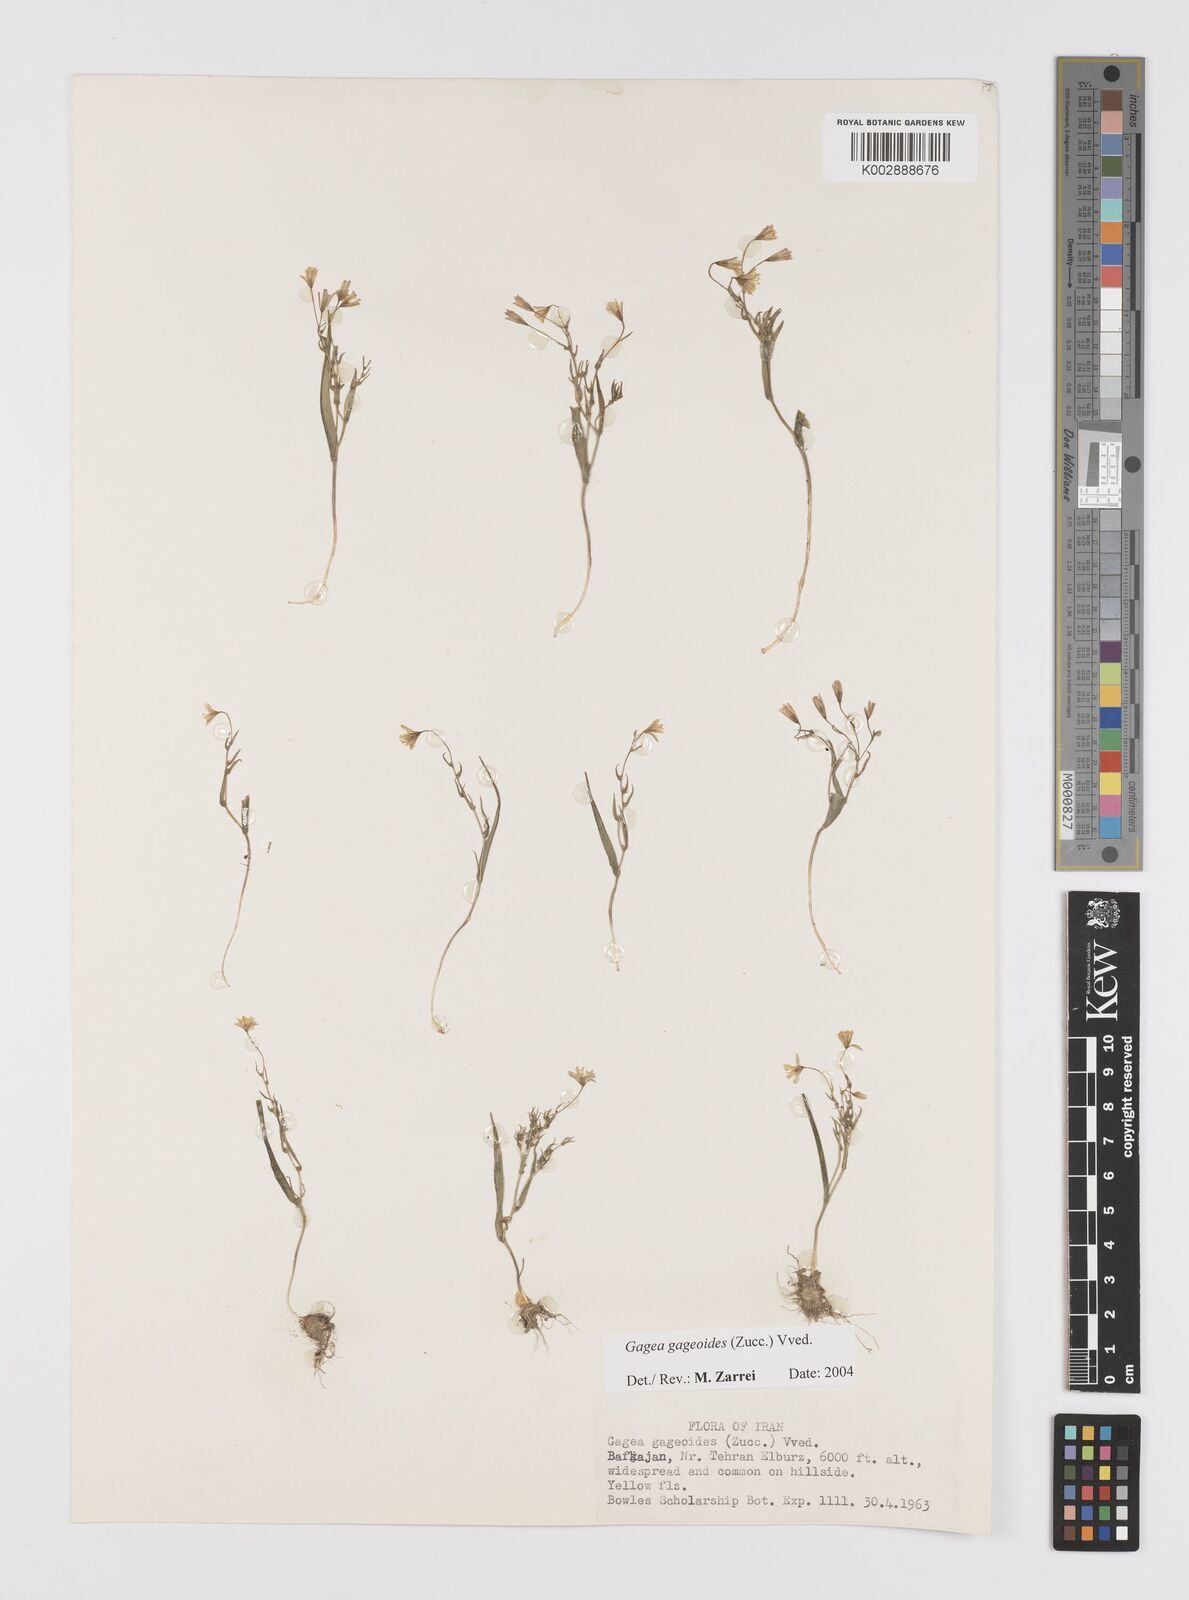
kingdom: Plantae
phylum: Tracheophyta
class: Liliopsida
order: Liliales
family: Liliaceae
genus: Gagea
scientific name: Gagea gageoides
